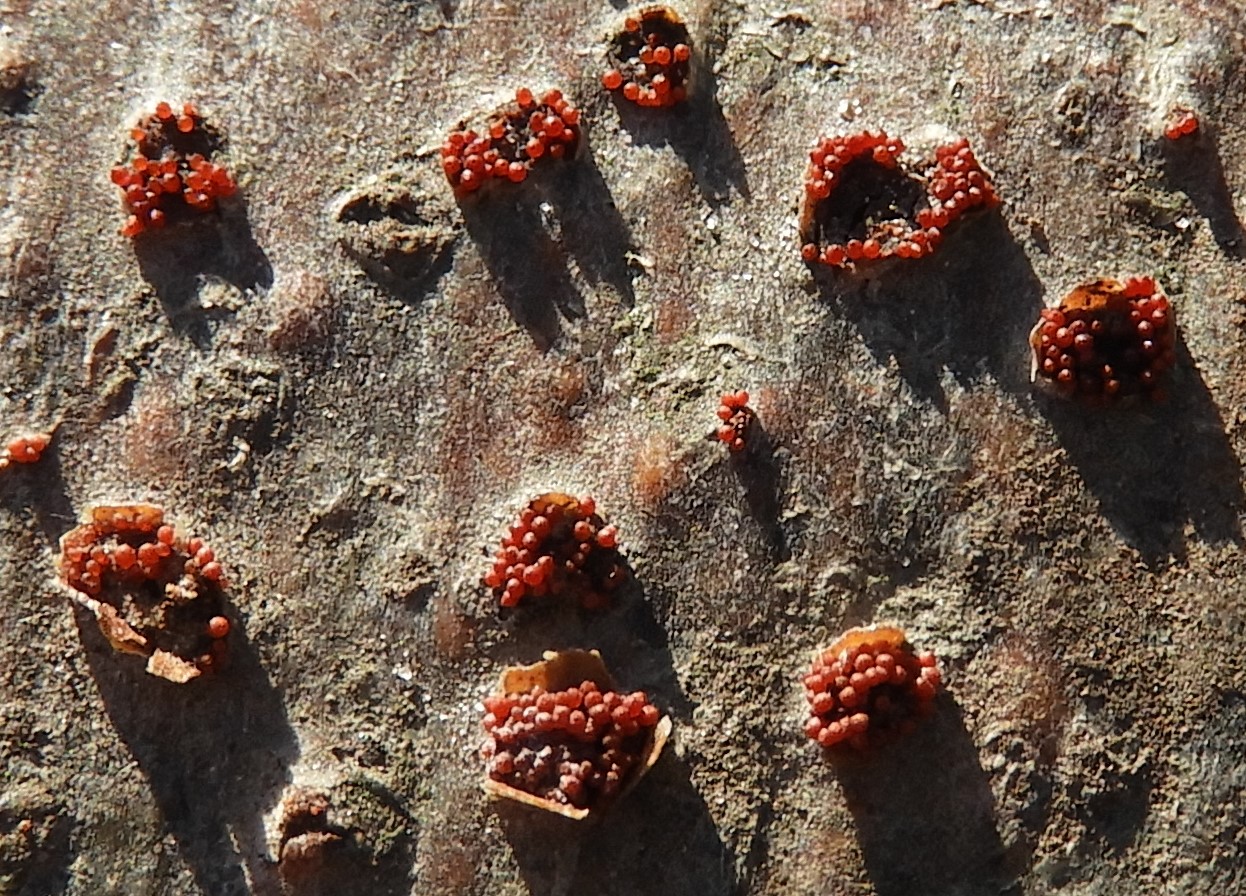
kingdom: Fungi
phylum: Ascomycota
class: Sordariomycetes
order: Hypocreales
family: Nectriaceae
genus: Neonectria
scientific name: Neonectria coccinea
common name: bøgebark-cinnobersvamp
